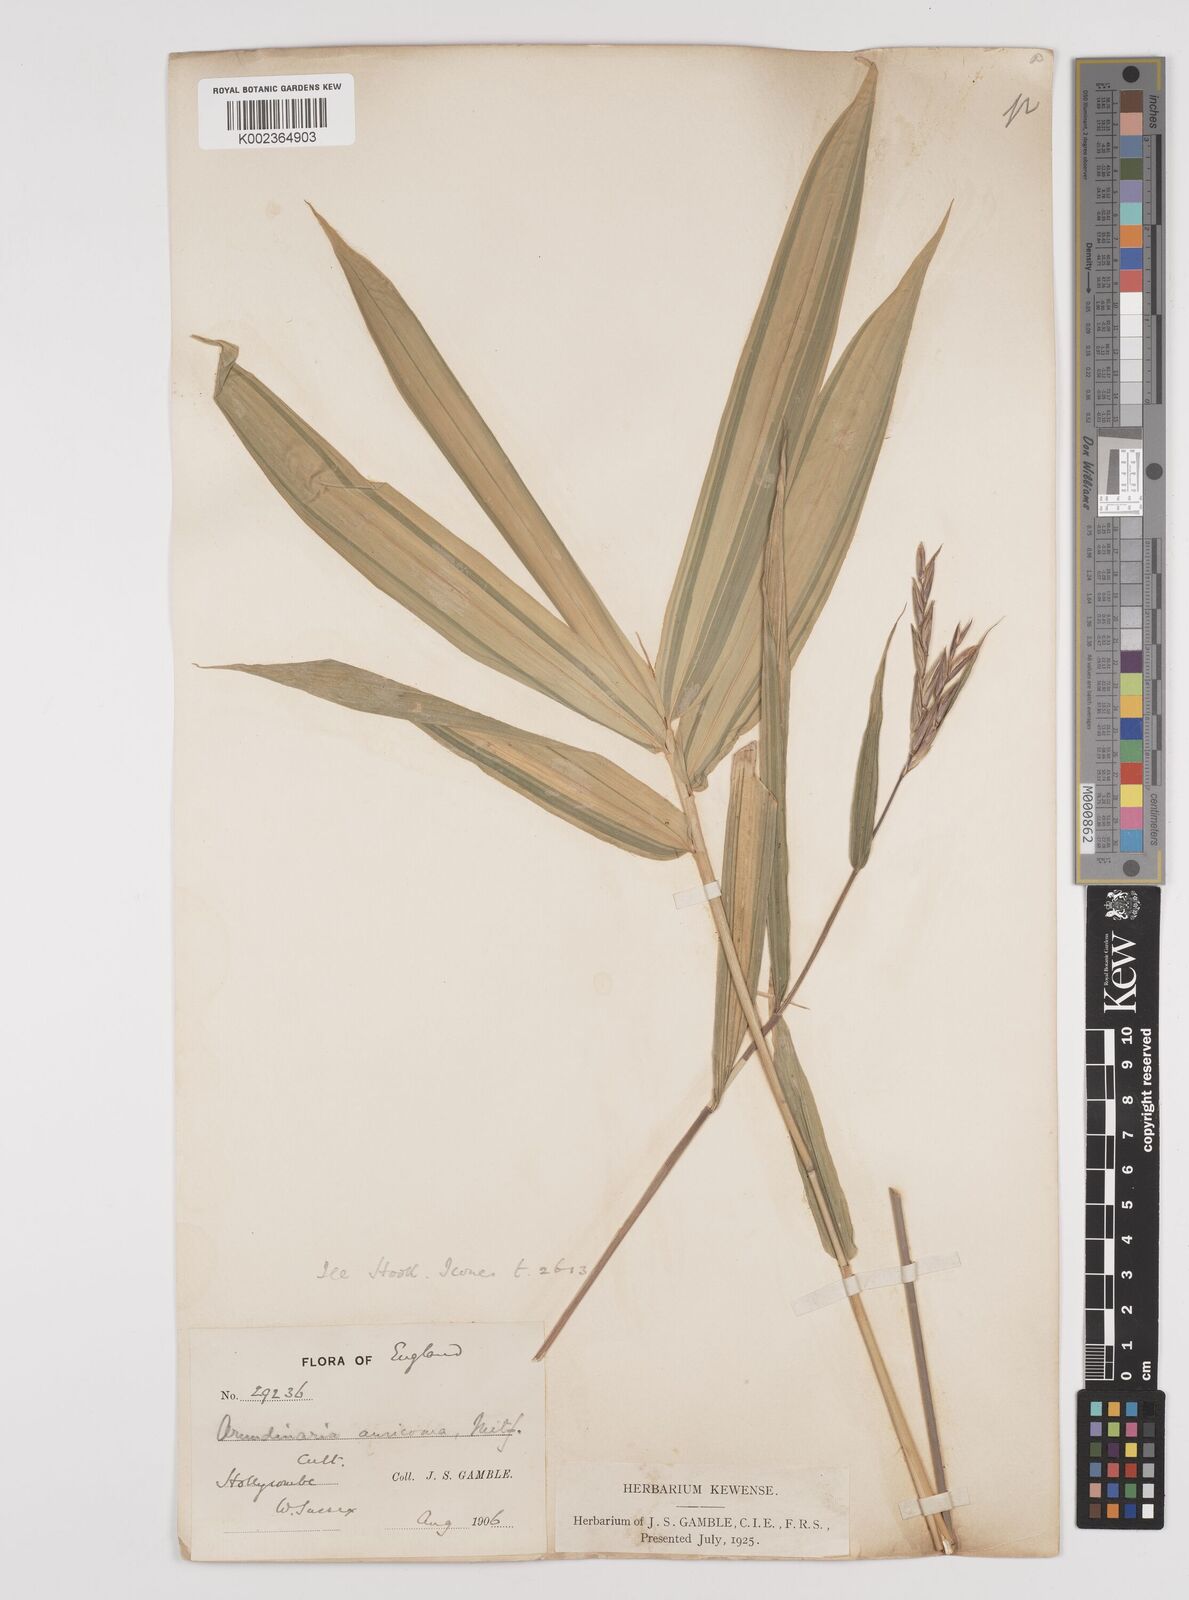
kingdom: Plantae
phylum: Tracheophyta
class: Liliopsida
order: Poales
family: Poaceae
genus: Pleioblastus
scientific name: Pleioblastus viridistriatus
